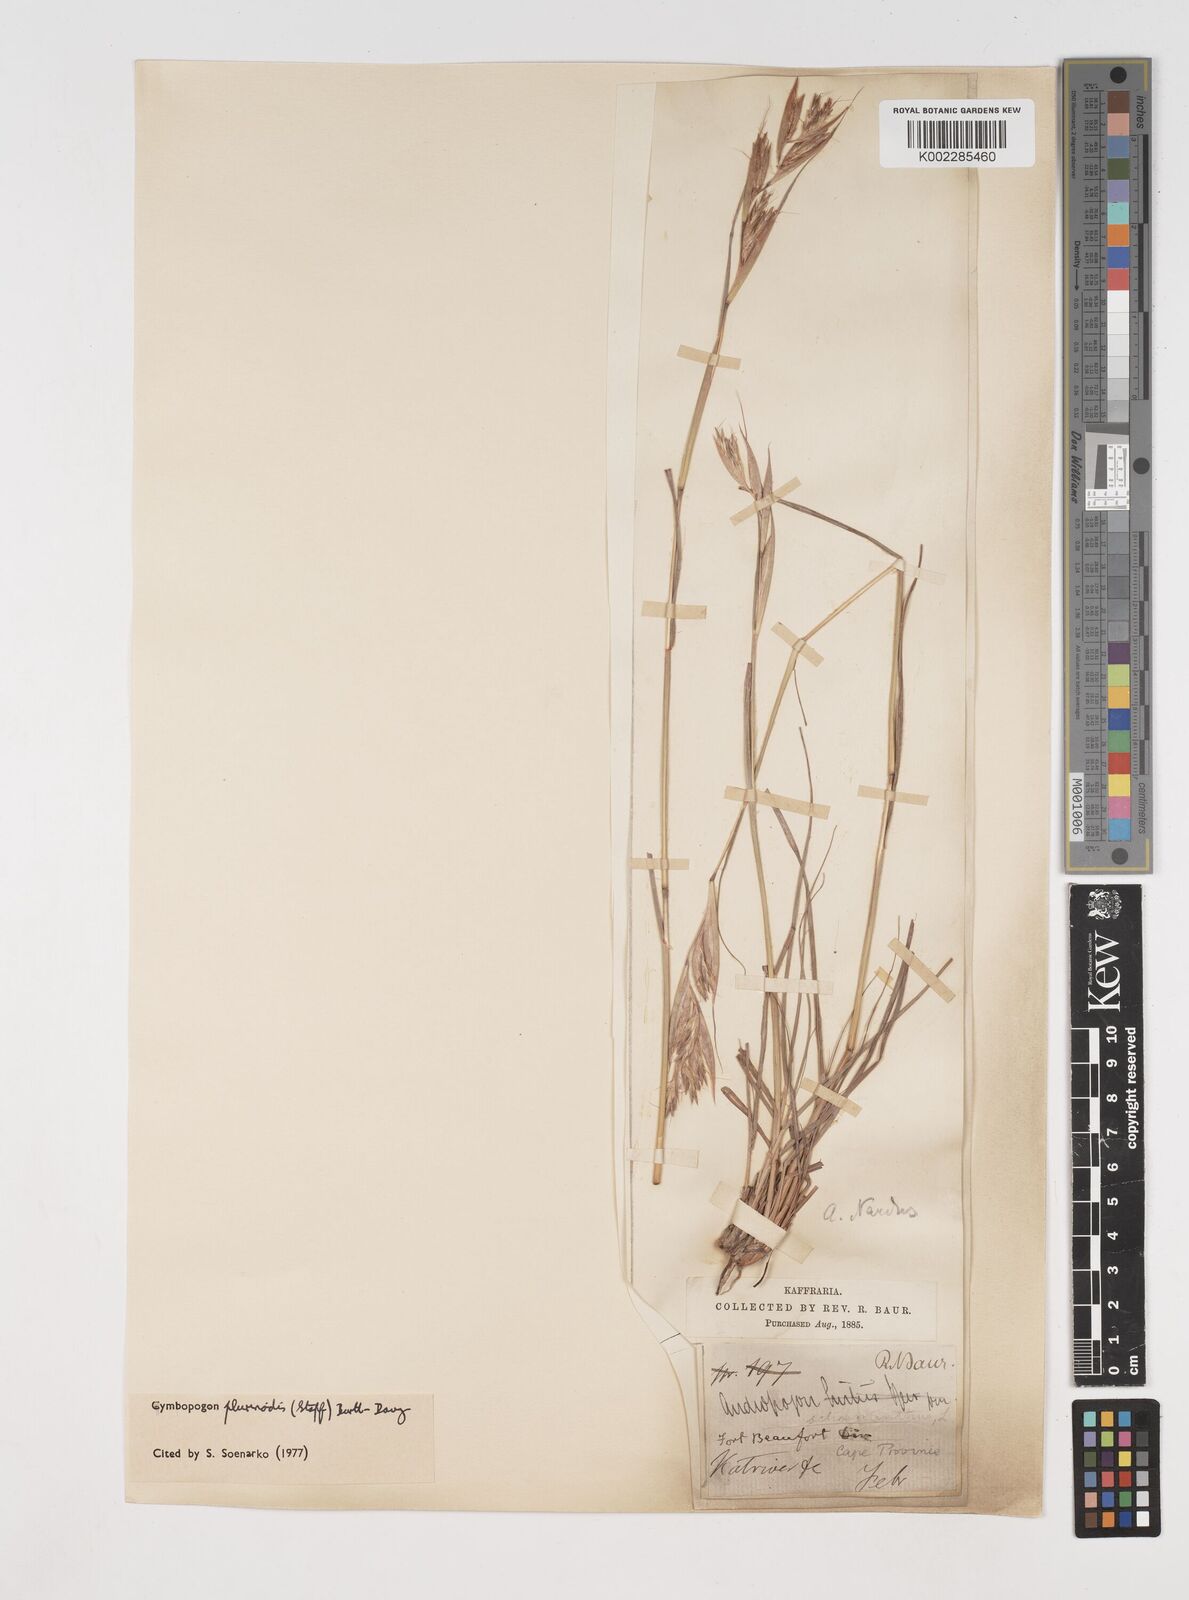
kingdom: Plantae
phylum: Tracheophyta
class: Liliopsida
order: Poales
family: Poaceae
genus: Cymbopogon
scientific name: Cymbopogon pospischilii
